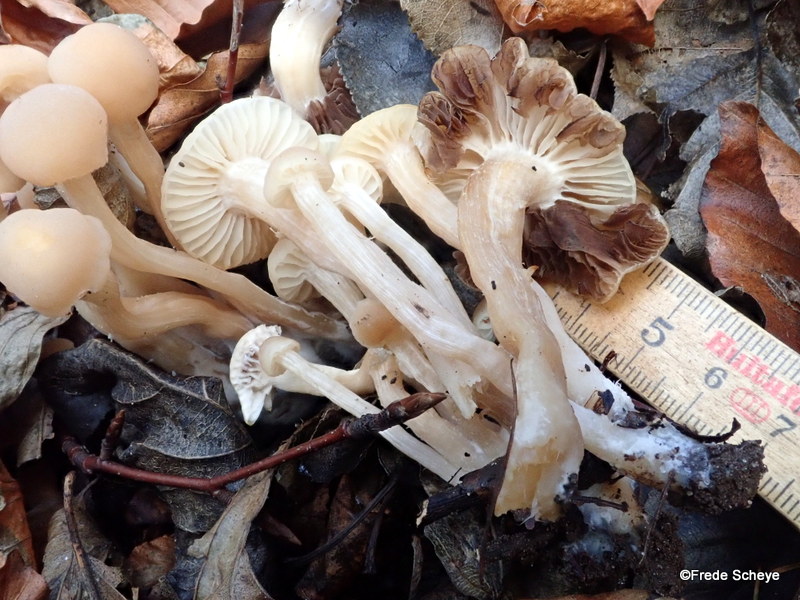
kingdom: Fungi
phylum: Basidiomycota
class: Agaricomycetes
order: Agaricales
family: Psathyrellaceae
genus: Homophron
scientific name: Homophron cernuum
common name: hvidlig mørkhat
